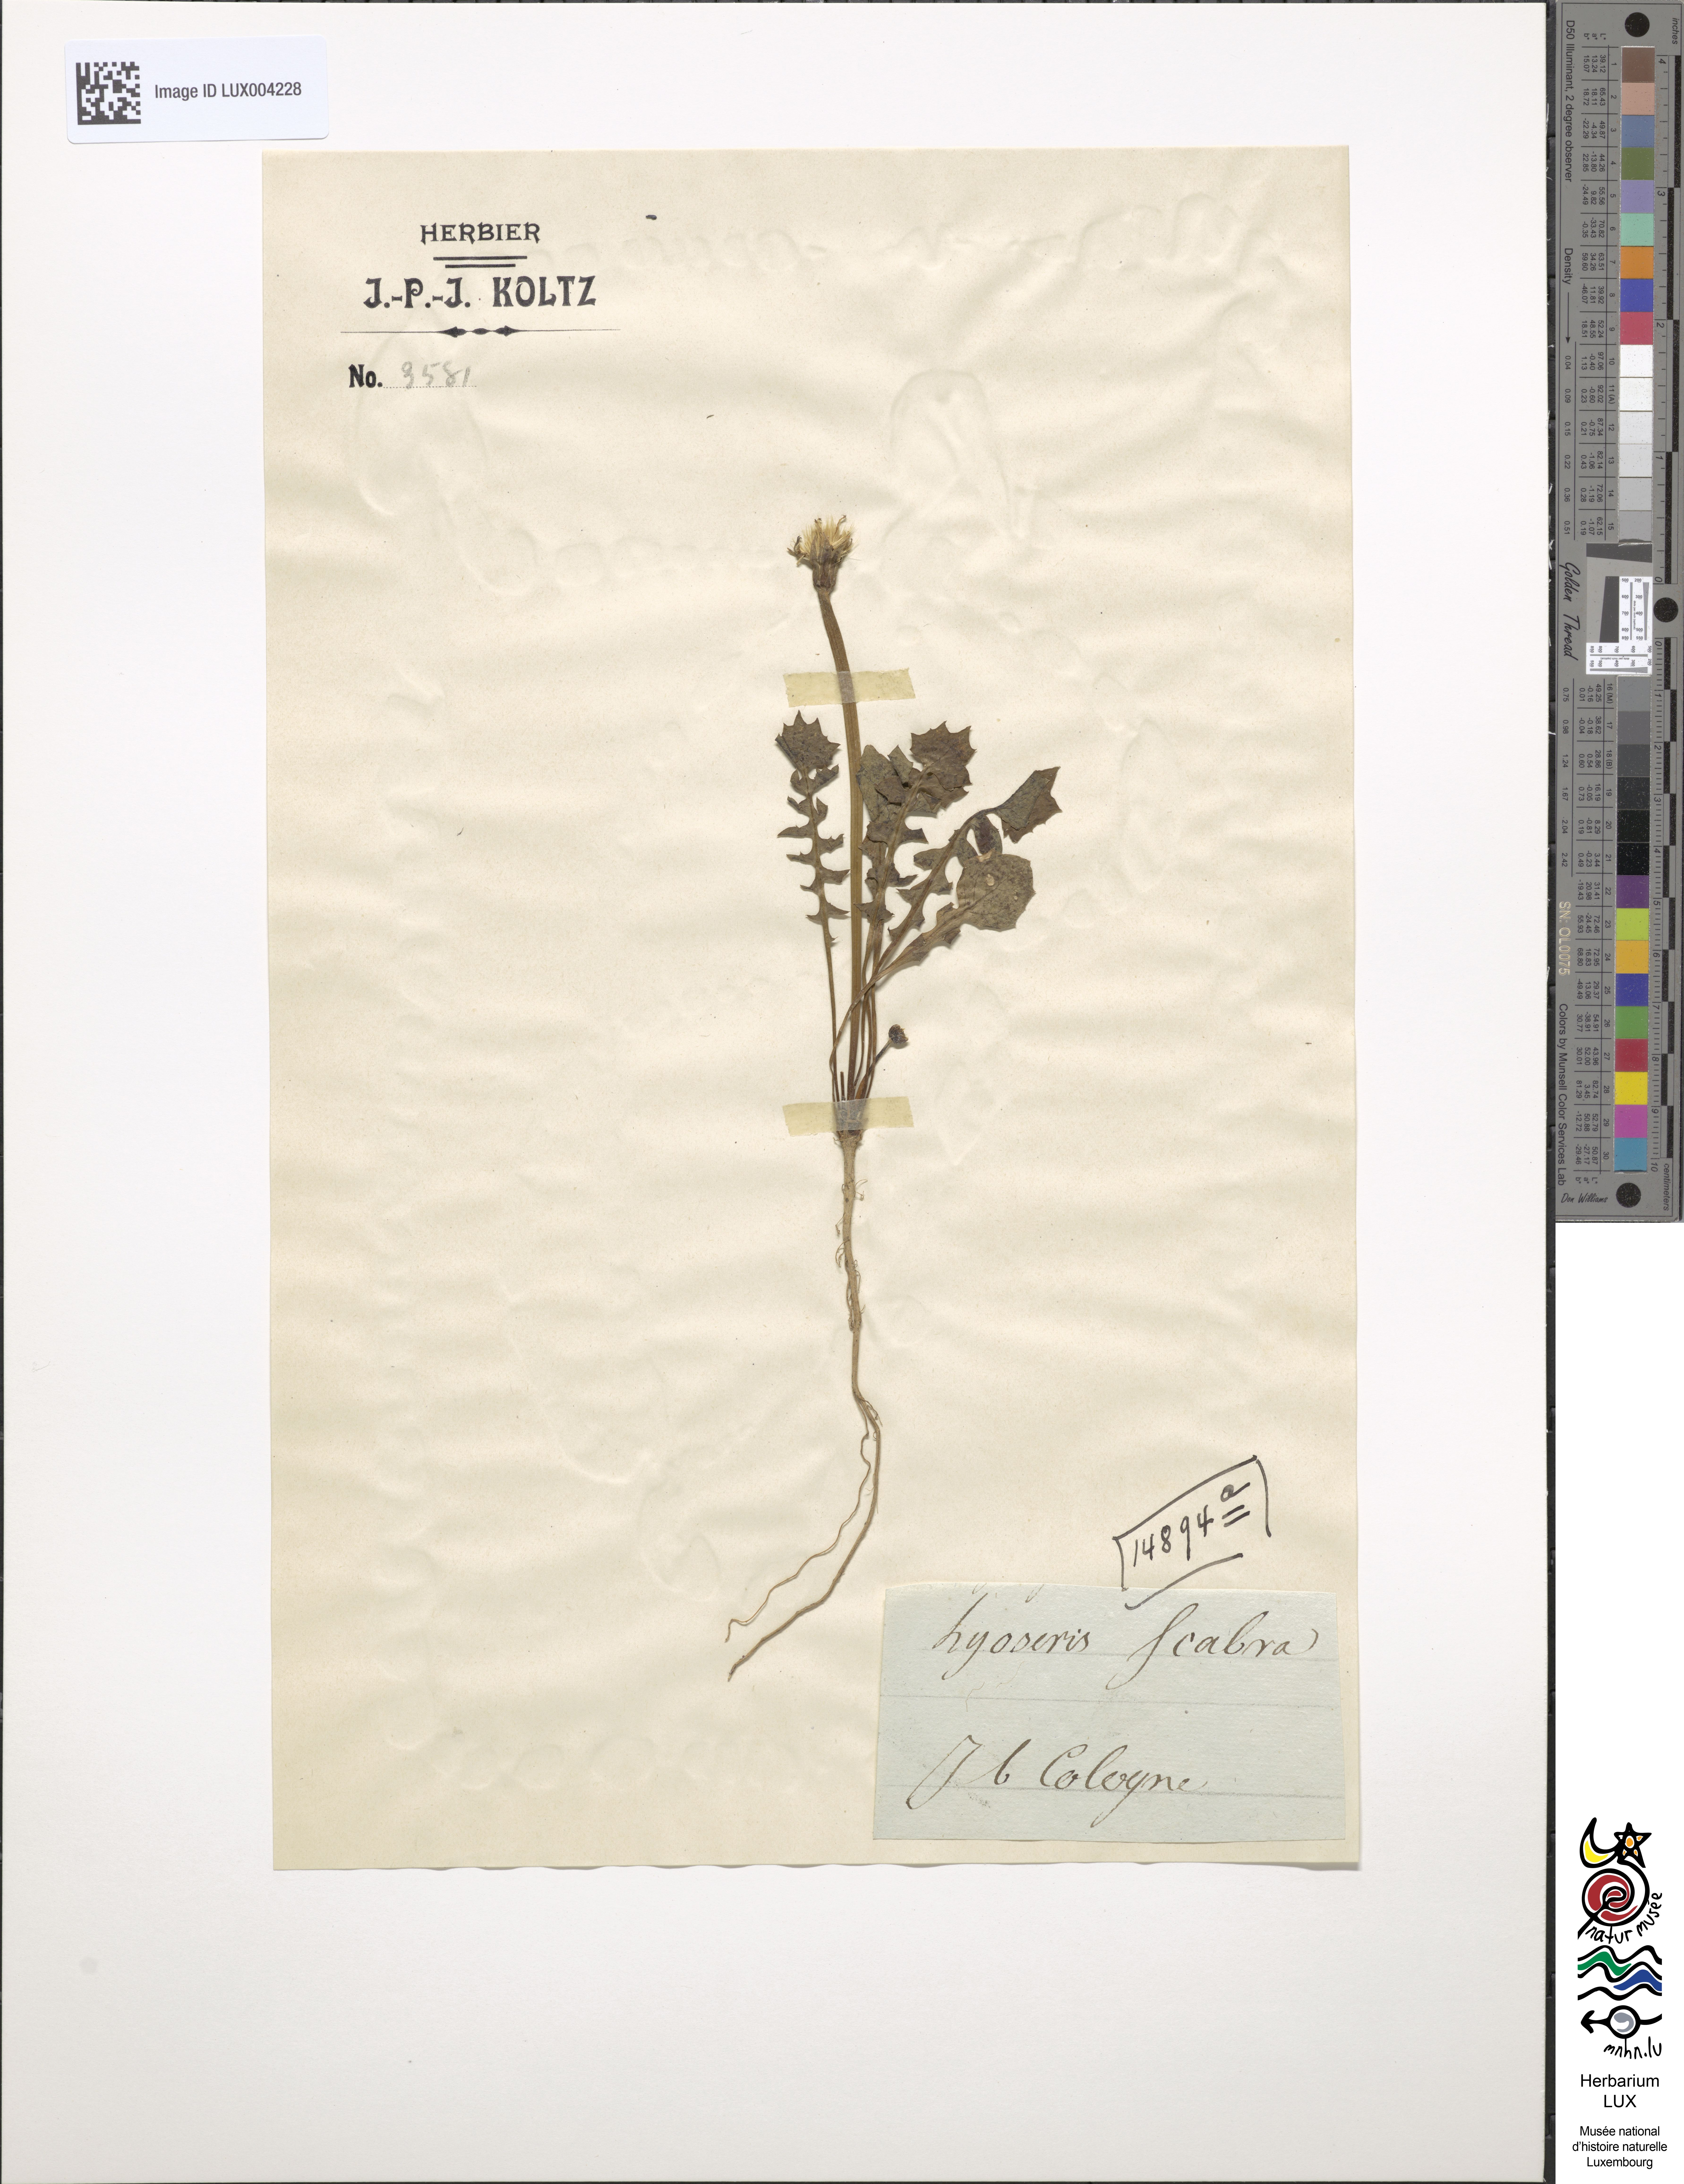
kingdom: Plantae
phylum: Tracheophyta
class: Magnoliopsida
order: Asterales
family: Asteraceae
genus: Hyoseris
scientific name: Hyoseris scabra
